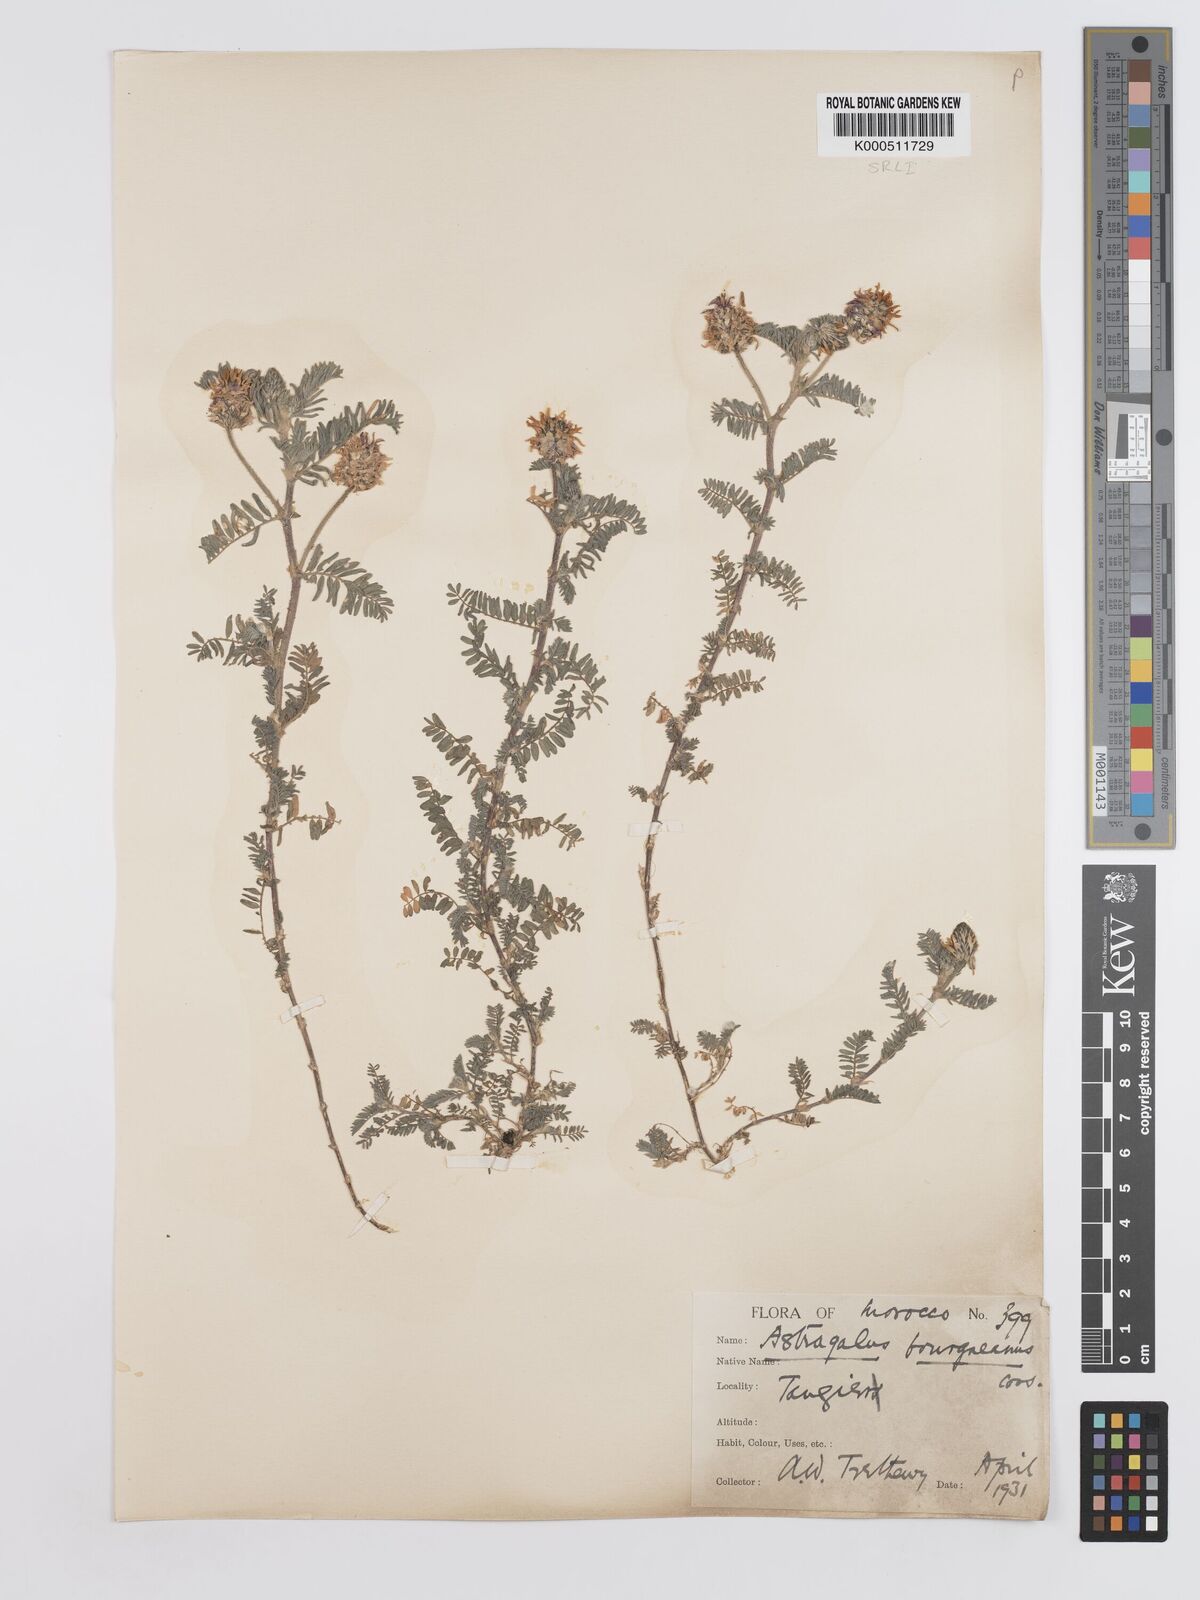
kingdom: Plantae
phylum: Tracheophyta
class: Magnoliopsida
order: Fabales
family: Fabaceae
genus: Astragalus
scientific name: Astragalus bourgaeanus
